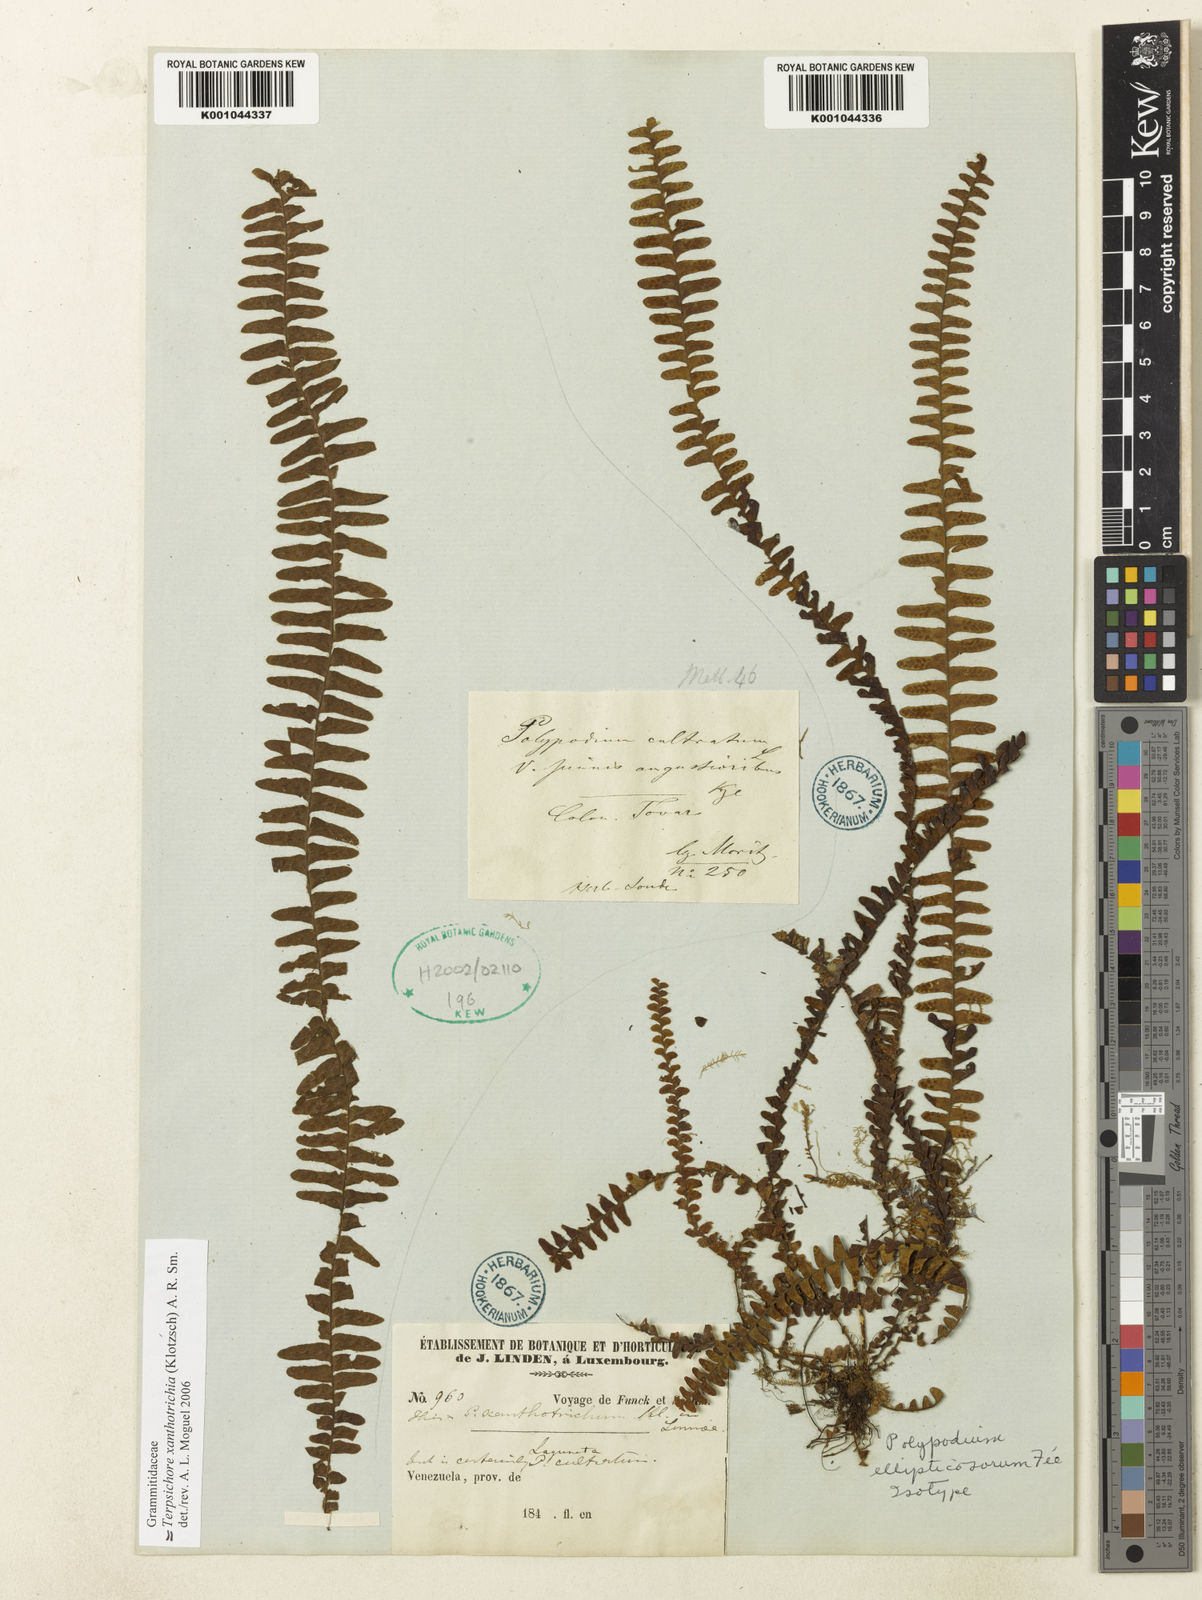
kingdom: Plantae
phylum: Tracheophyta
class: Polypodiopsida
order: Polypodiales
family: Polypodiaceae
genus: Alansmia
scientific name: Alansmia xanthotrichia
